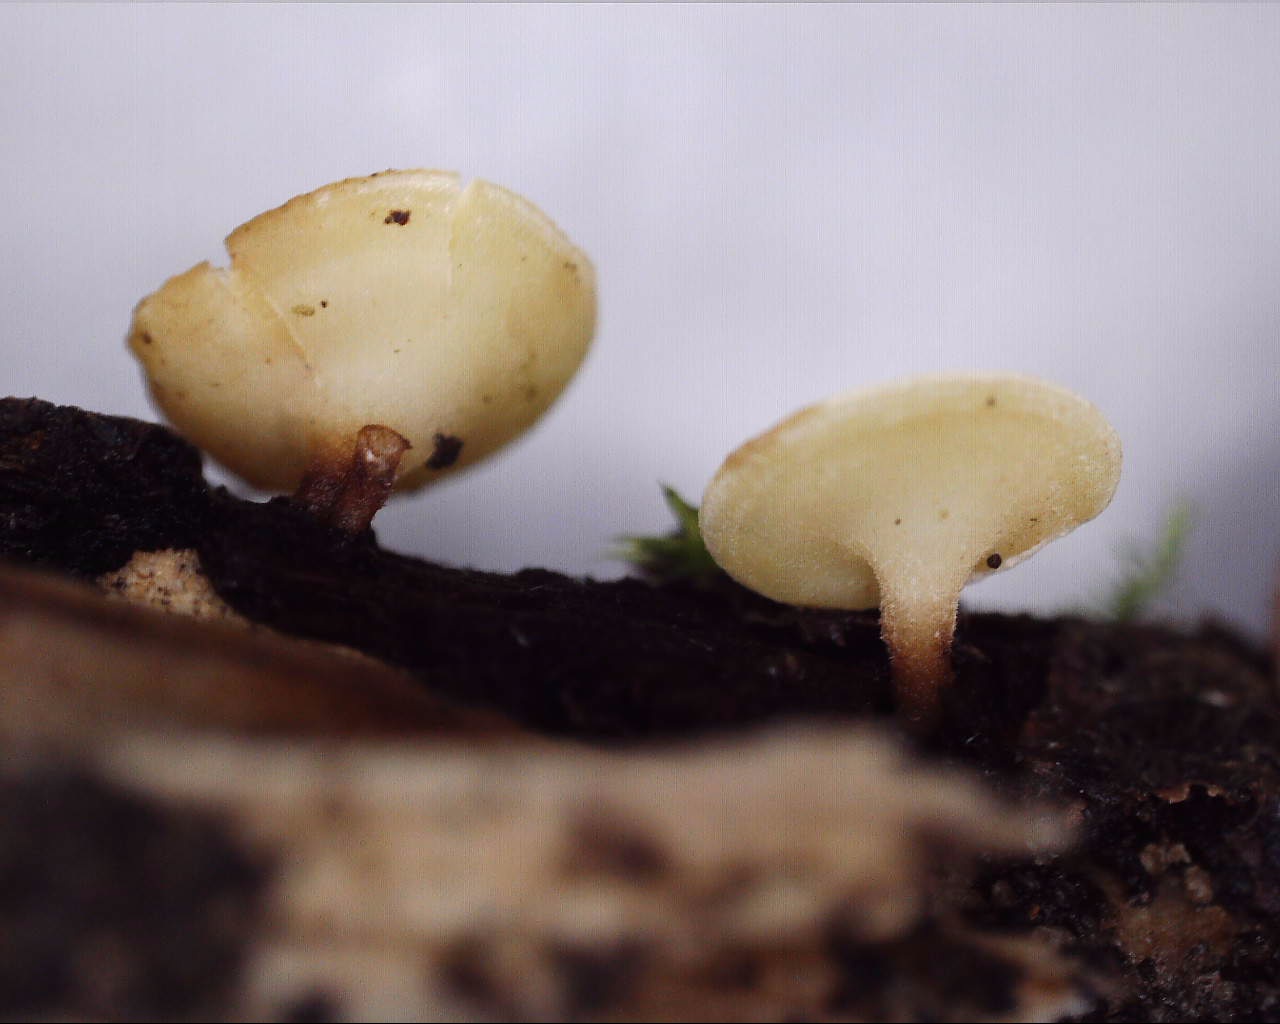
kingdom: Fungi
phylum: Ascomycota
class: Leotiomycetes
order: Helotiales
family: Helotiaceae
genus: Hymenoscyphus
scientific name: Hymenoscyphus
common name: stilkskive
